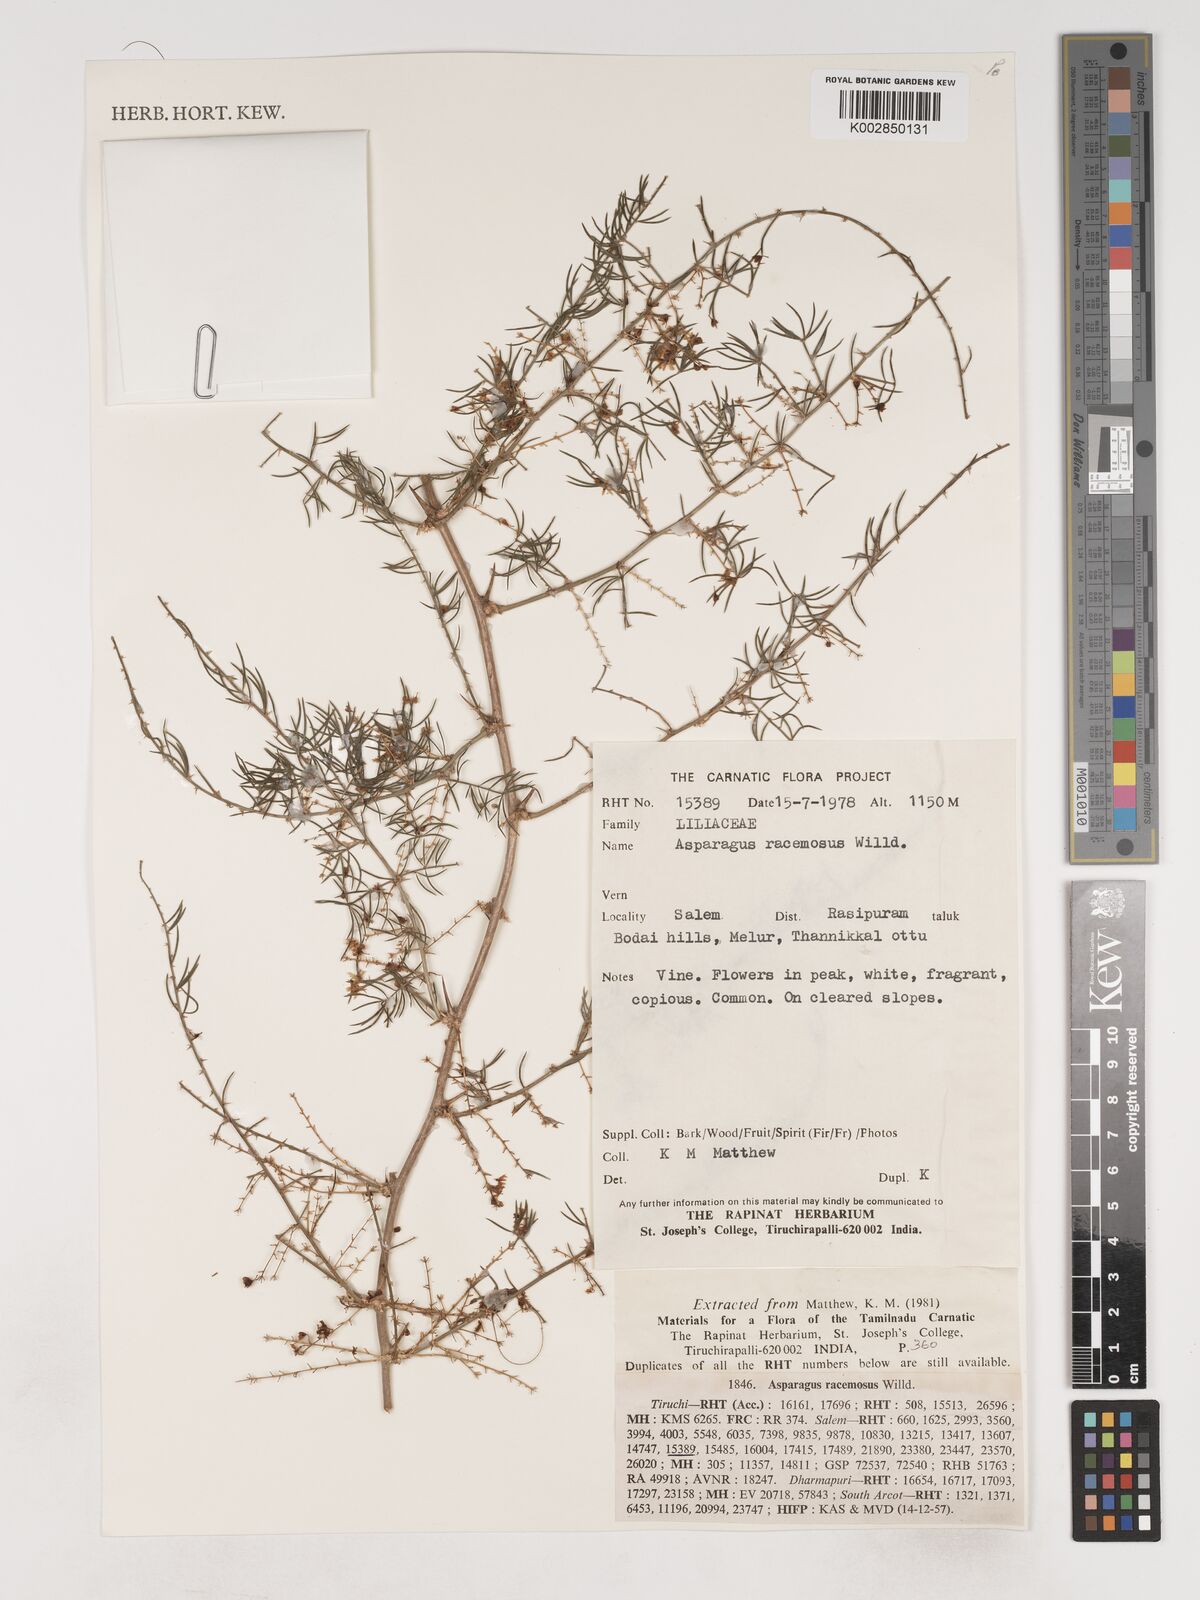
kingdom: Plantae
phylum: Tracheophyta
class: Liliopsida
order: Asparagales
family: Asparagaceae
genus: Asparagus
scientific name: Asparagus racemosus
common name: Asparagus-fern
